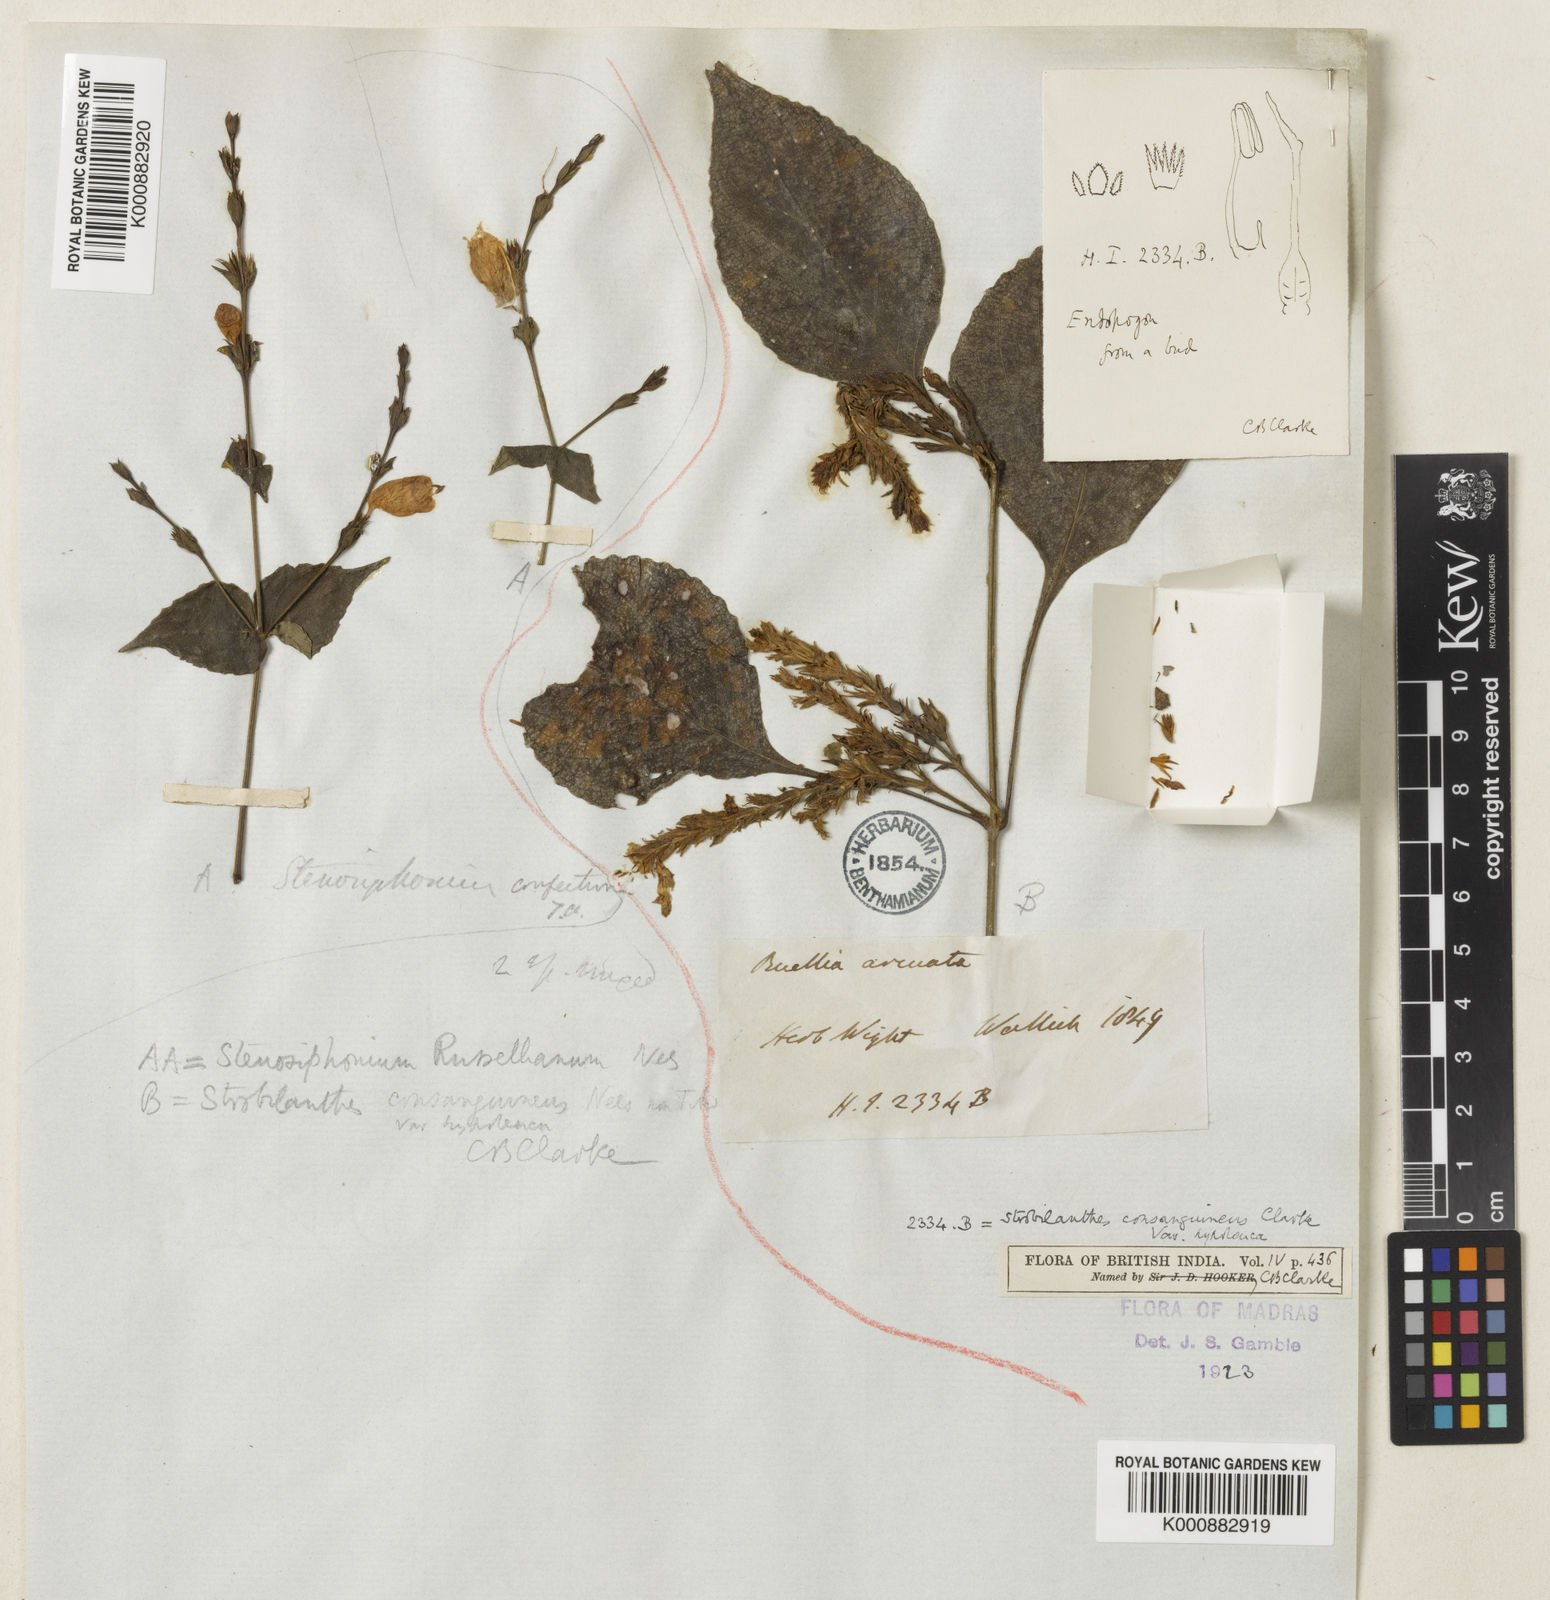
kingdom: Plantae
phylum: Tracheophyta
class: Magnoliopsida
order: Lamiales
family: Acanthaceae
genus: Strobilanthes
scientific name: Strobilanthes consanguinea
